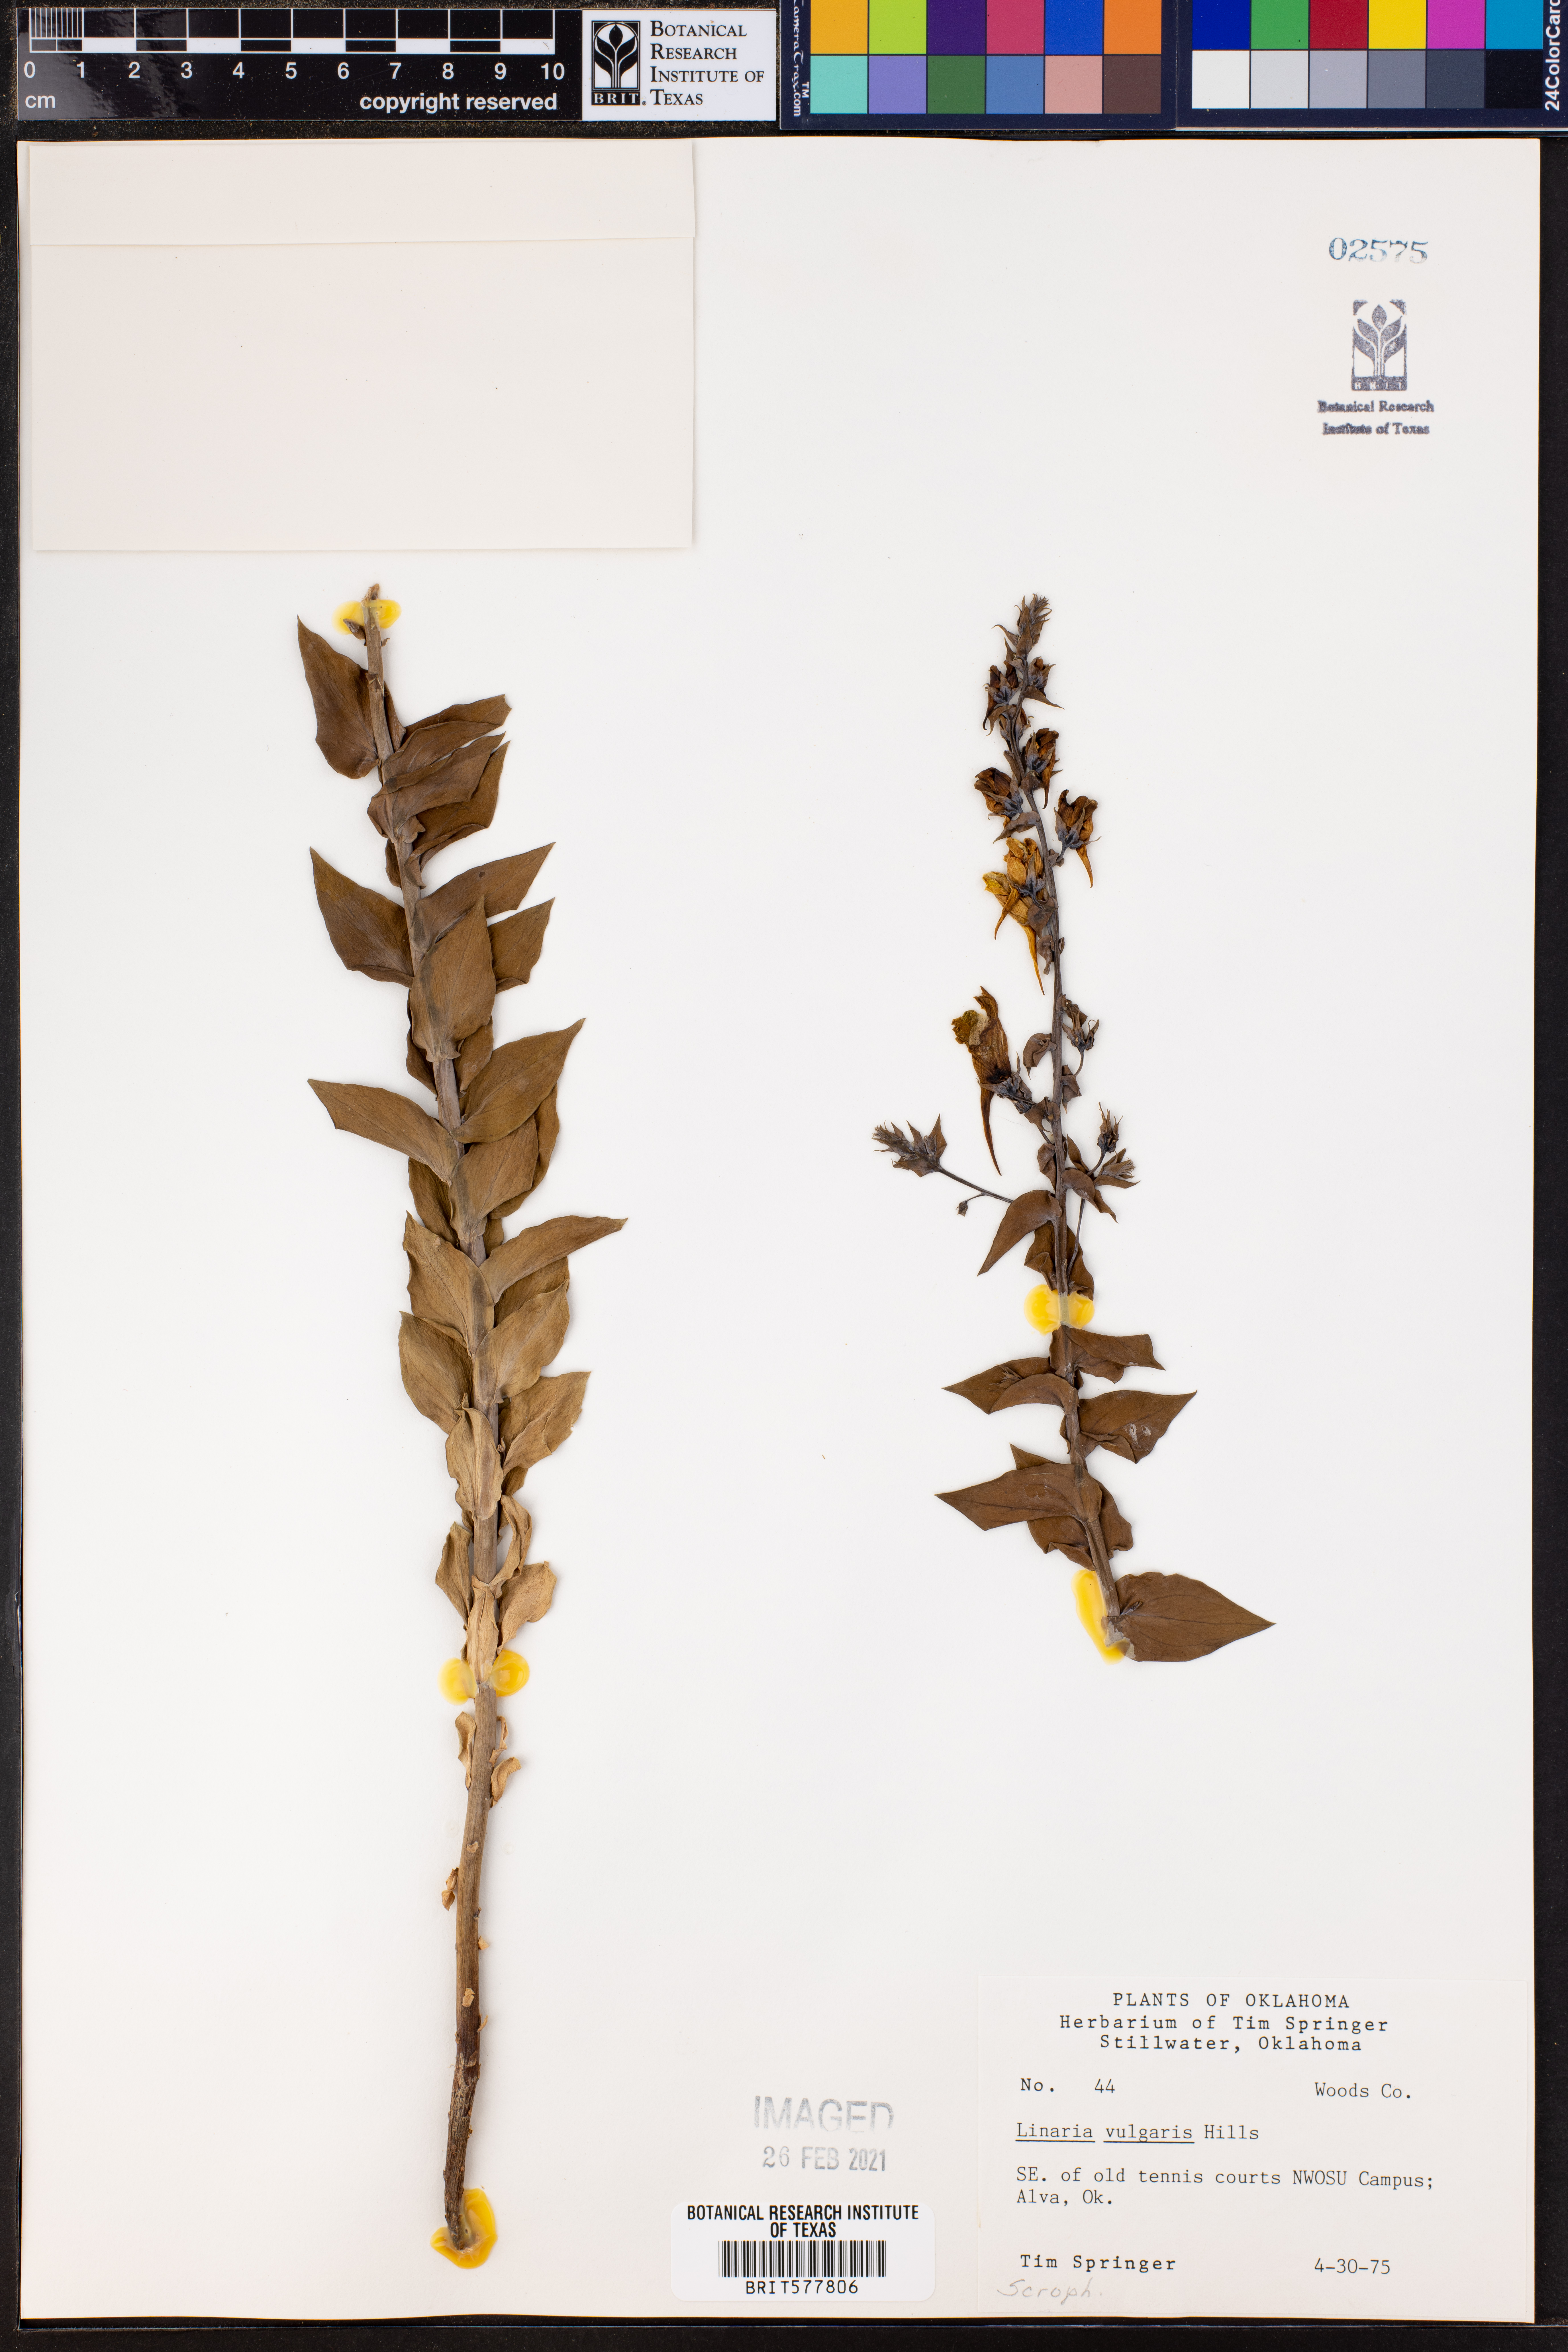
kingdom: Plantae
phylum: Tracheophyta
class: Magnoliopsida
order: Lamiales
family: Plantaginaceae
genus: Linaria
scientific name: Linaria vulgaris
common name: Butter and eggs
